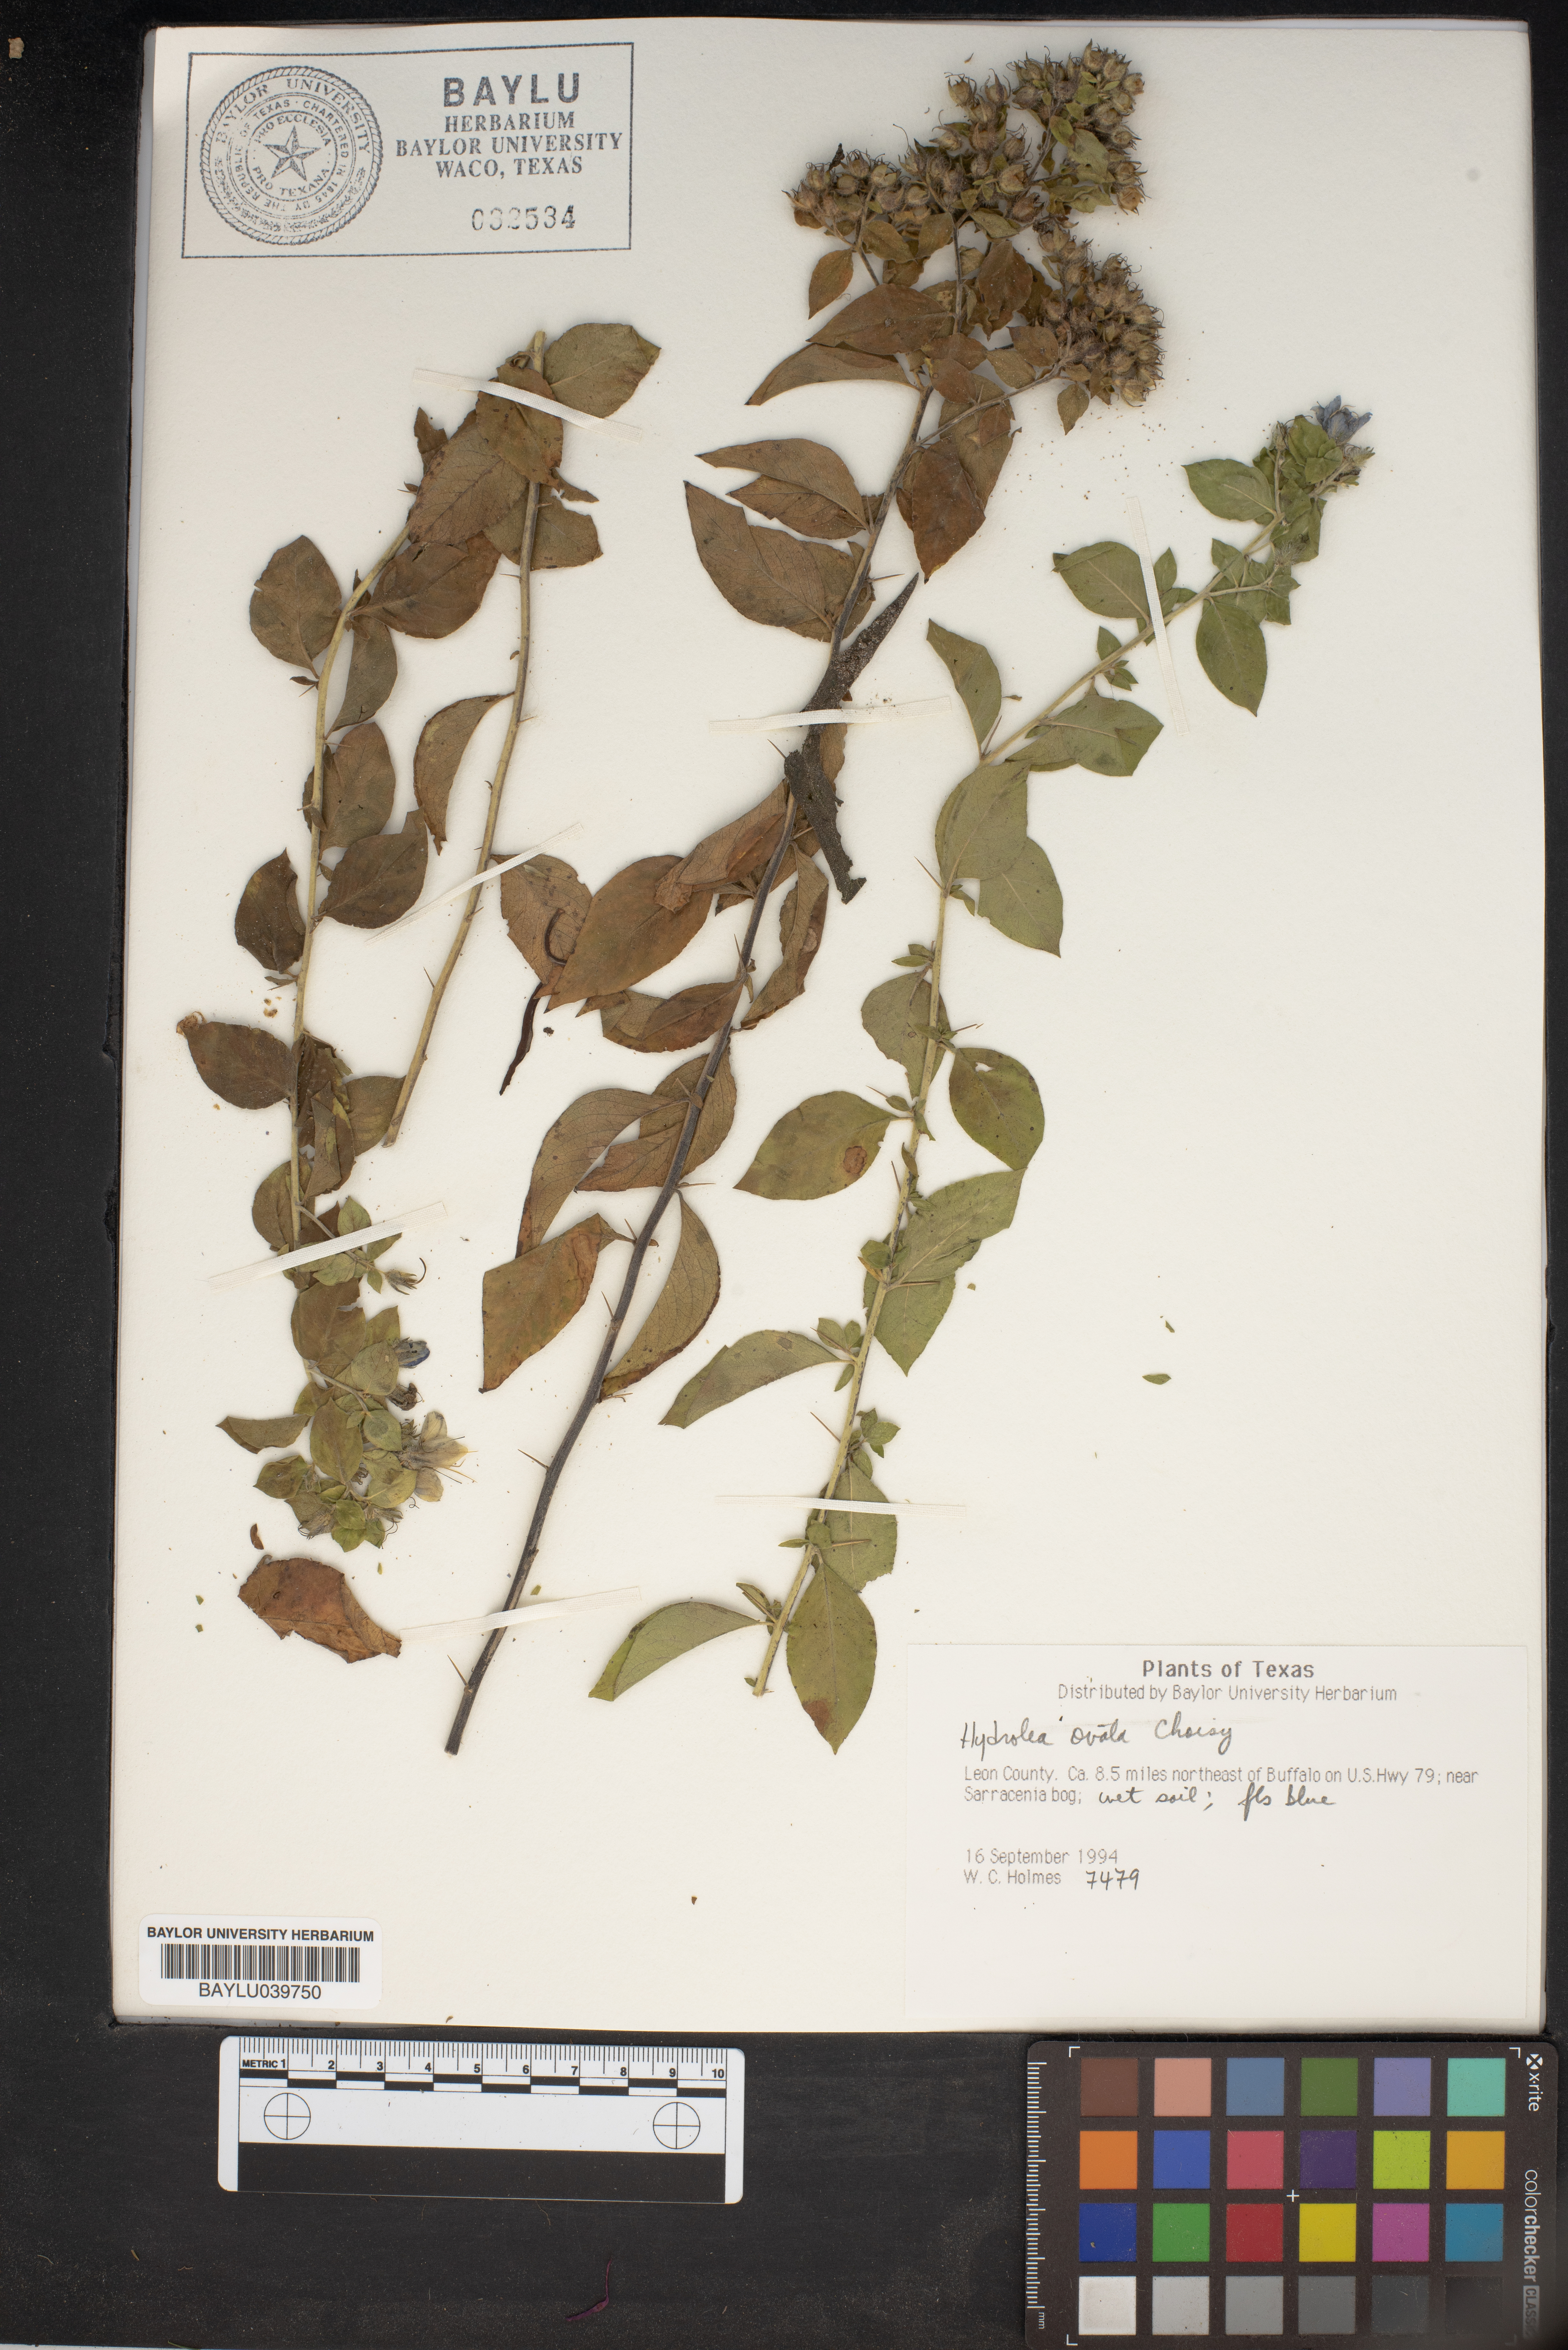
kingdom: Plantae
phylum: Tracheophyta
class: Magnoliopsida
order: Solanales
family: Hydroleaceae
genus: Hydrolea
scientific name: Hydrolea ovata
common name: Ovate false fiddleleaf
